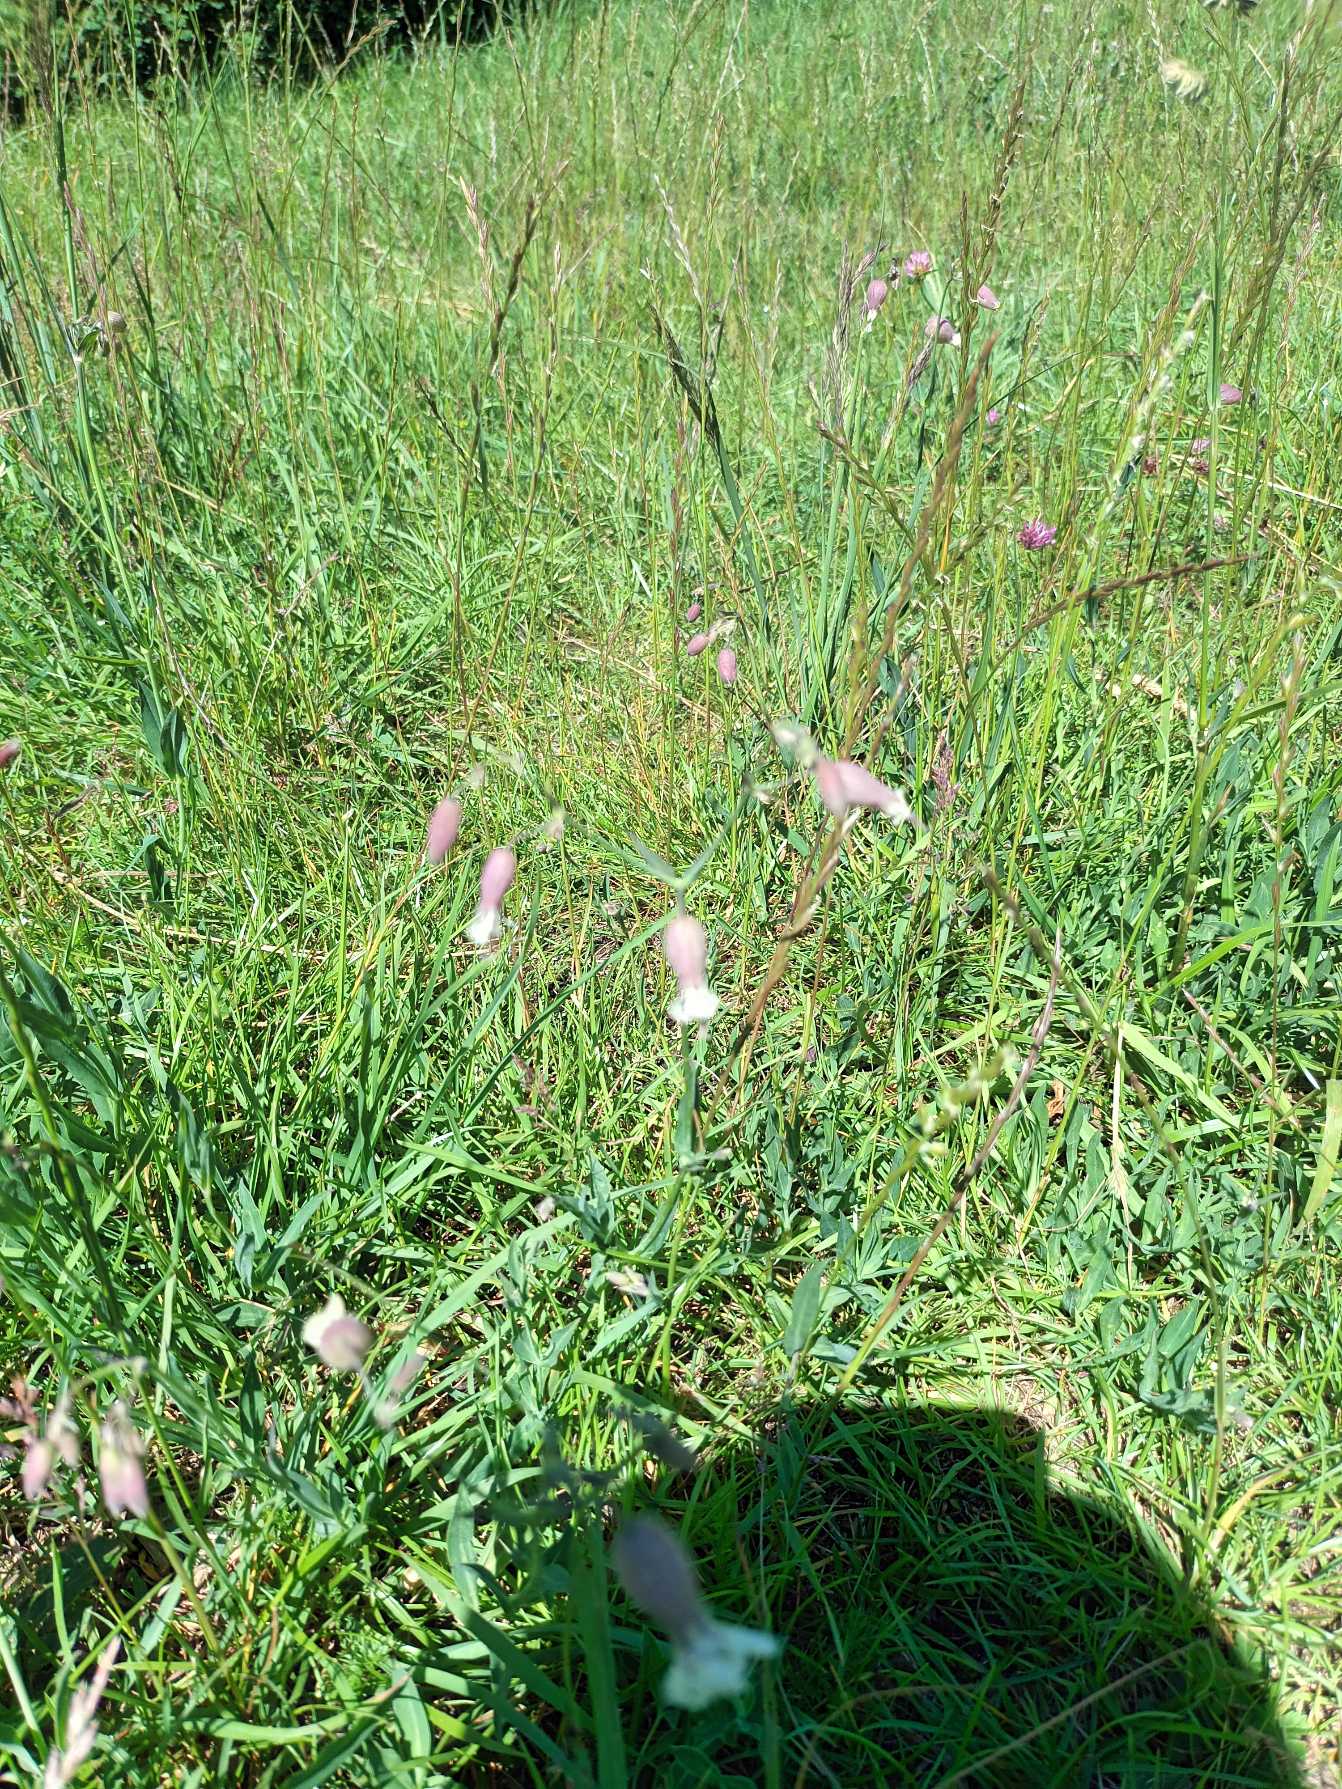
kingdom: Plantae
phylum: Tracheophyta
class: Magnoliopsida
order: Caryophyllales
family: Caryophyllaceae
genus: Silene
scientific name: Silene vulgaris
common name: Blæresmælde
